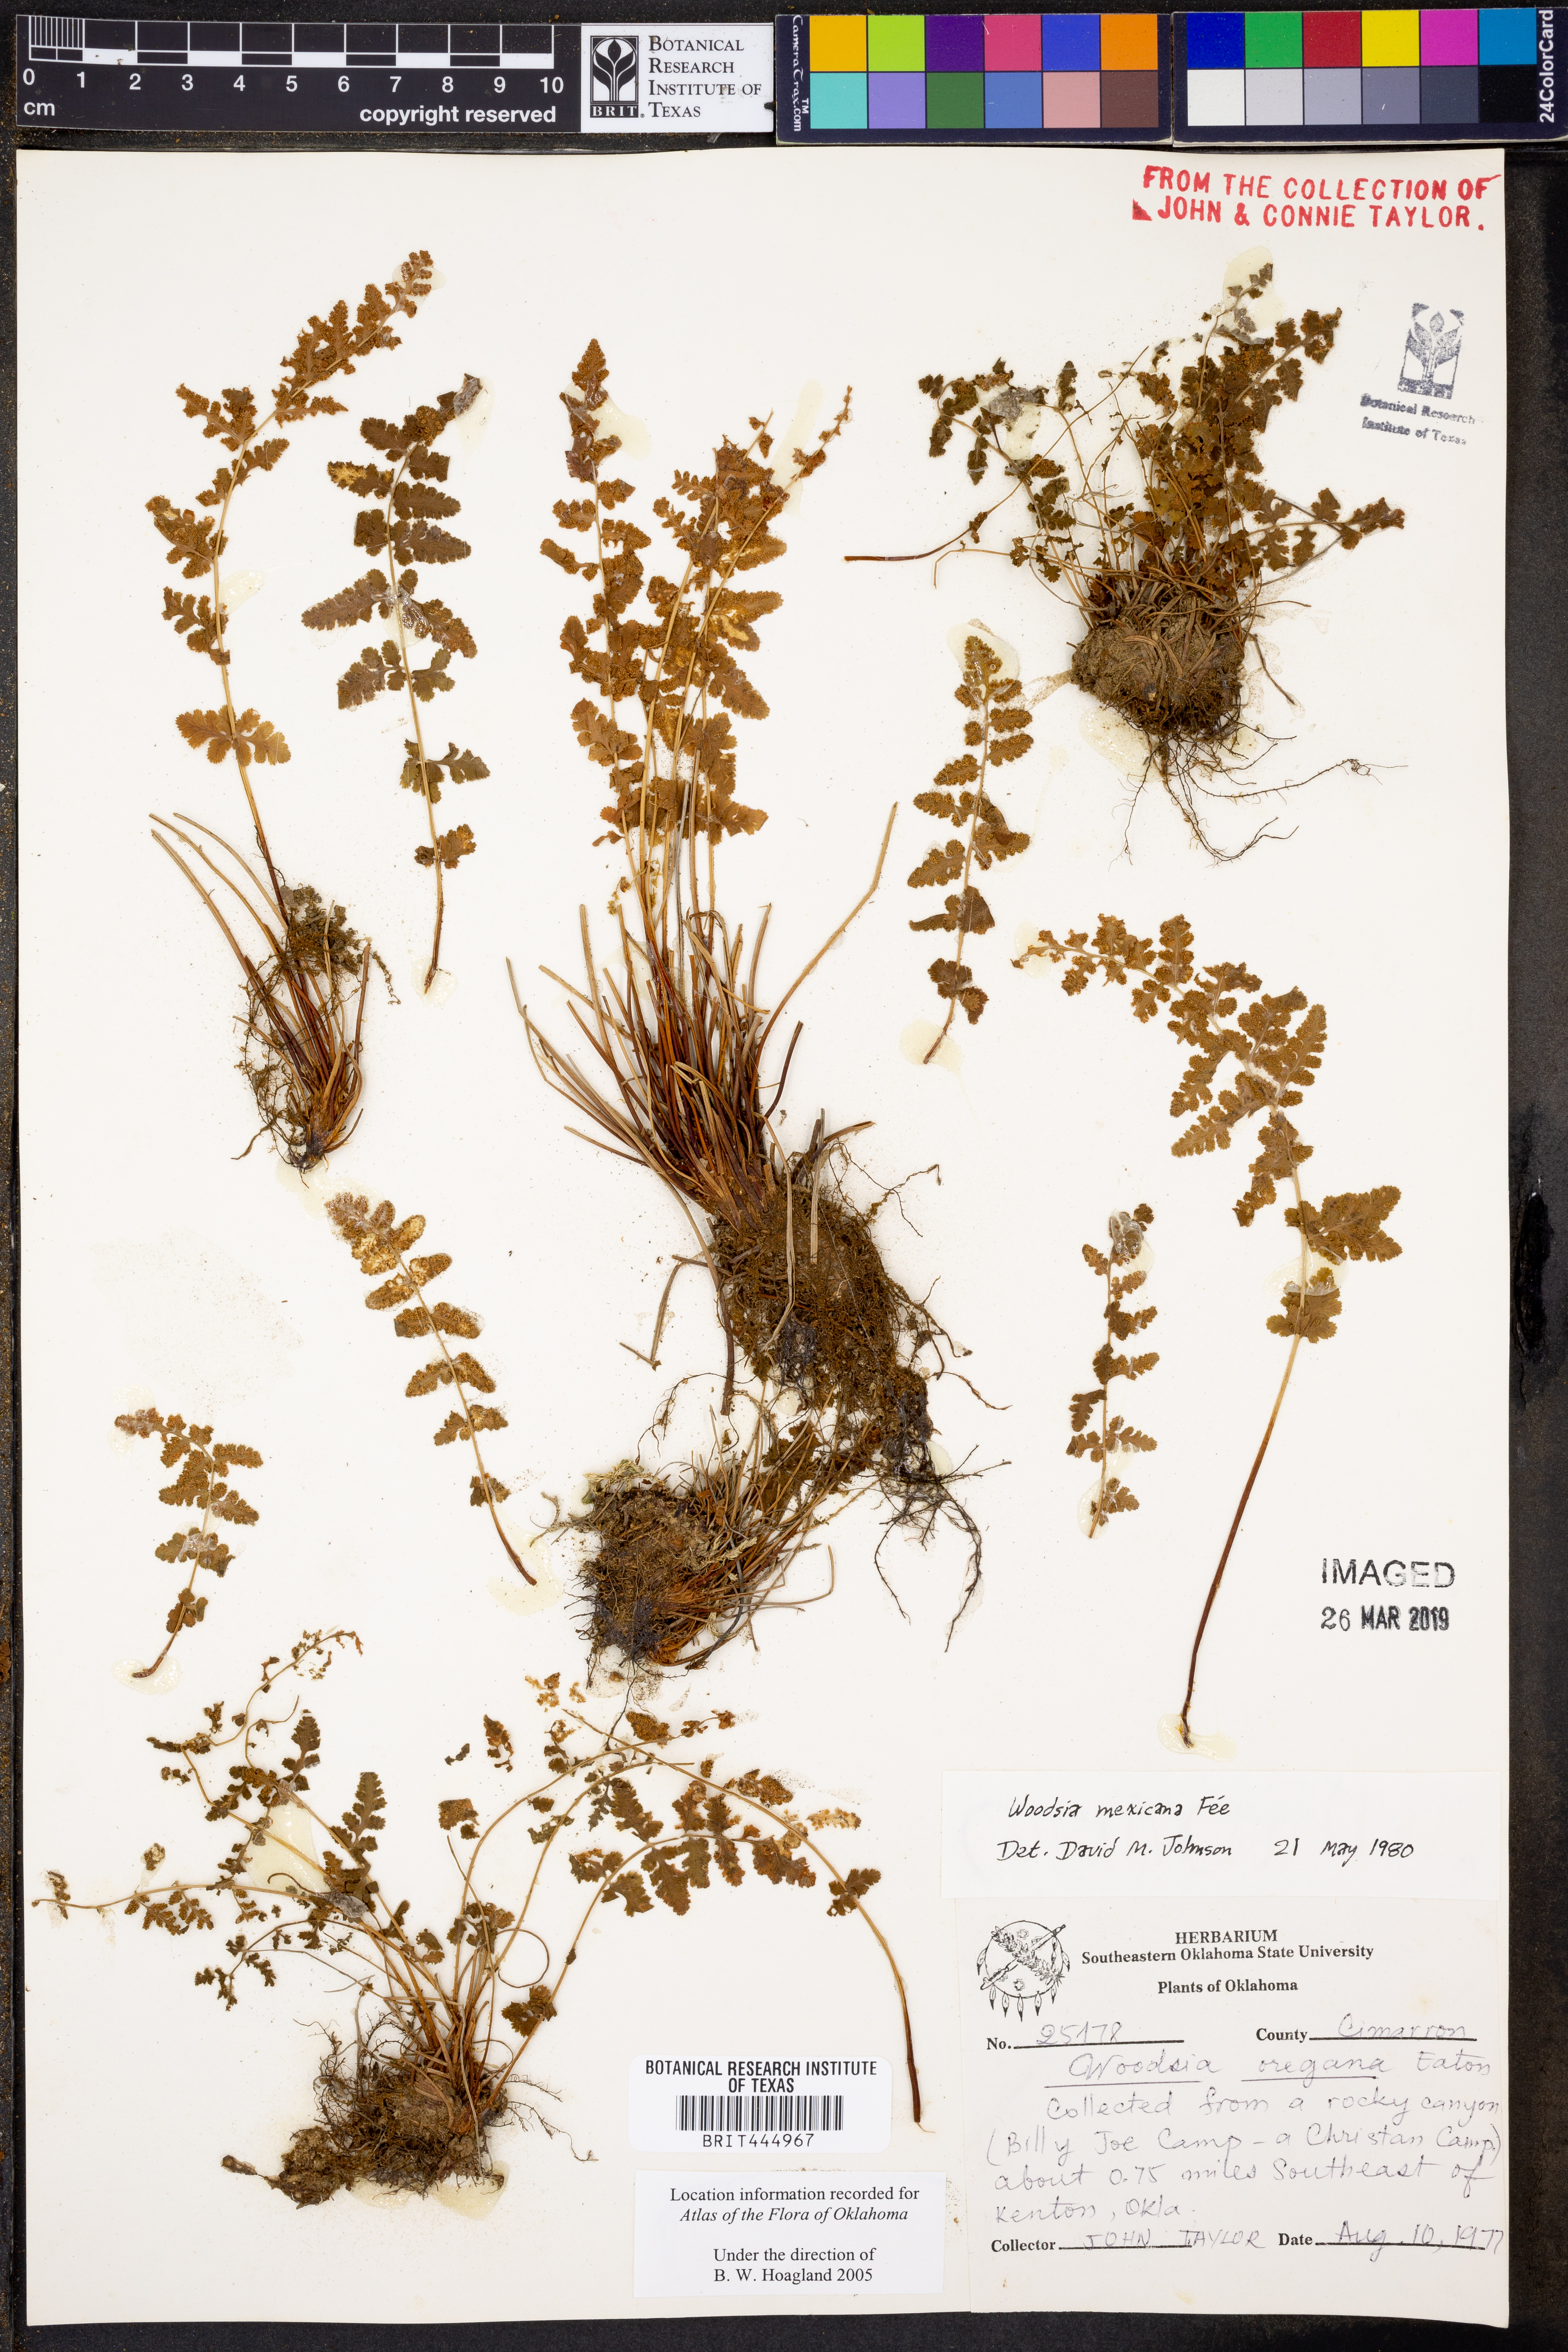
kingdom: Plantae
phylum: Tracheophyta
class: Polypodiopsida
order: Polypodiales
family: Woodsiaceae
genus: Physematium
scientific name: Physematium mexicanum
